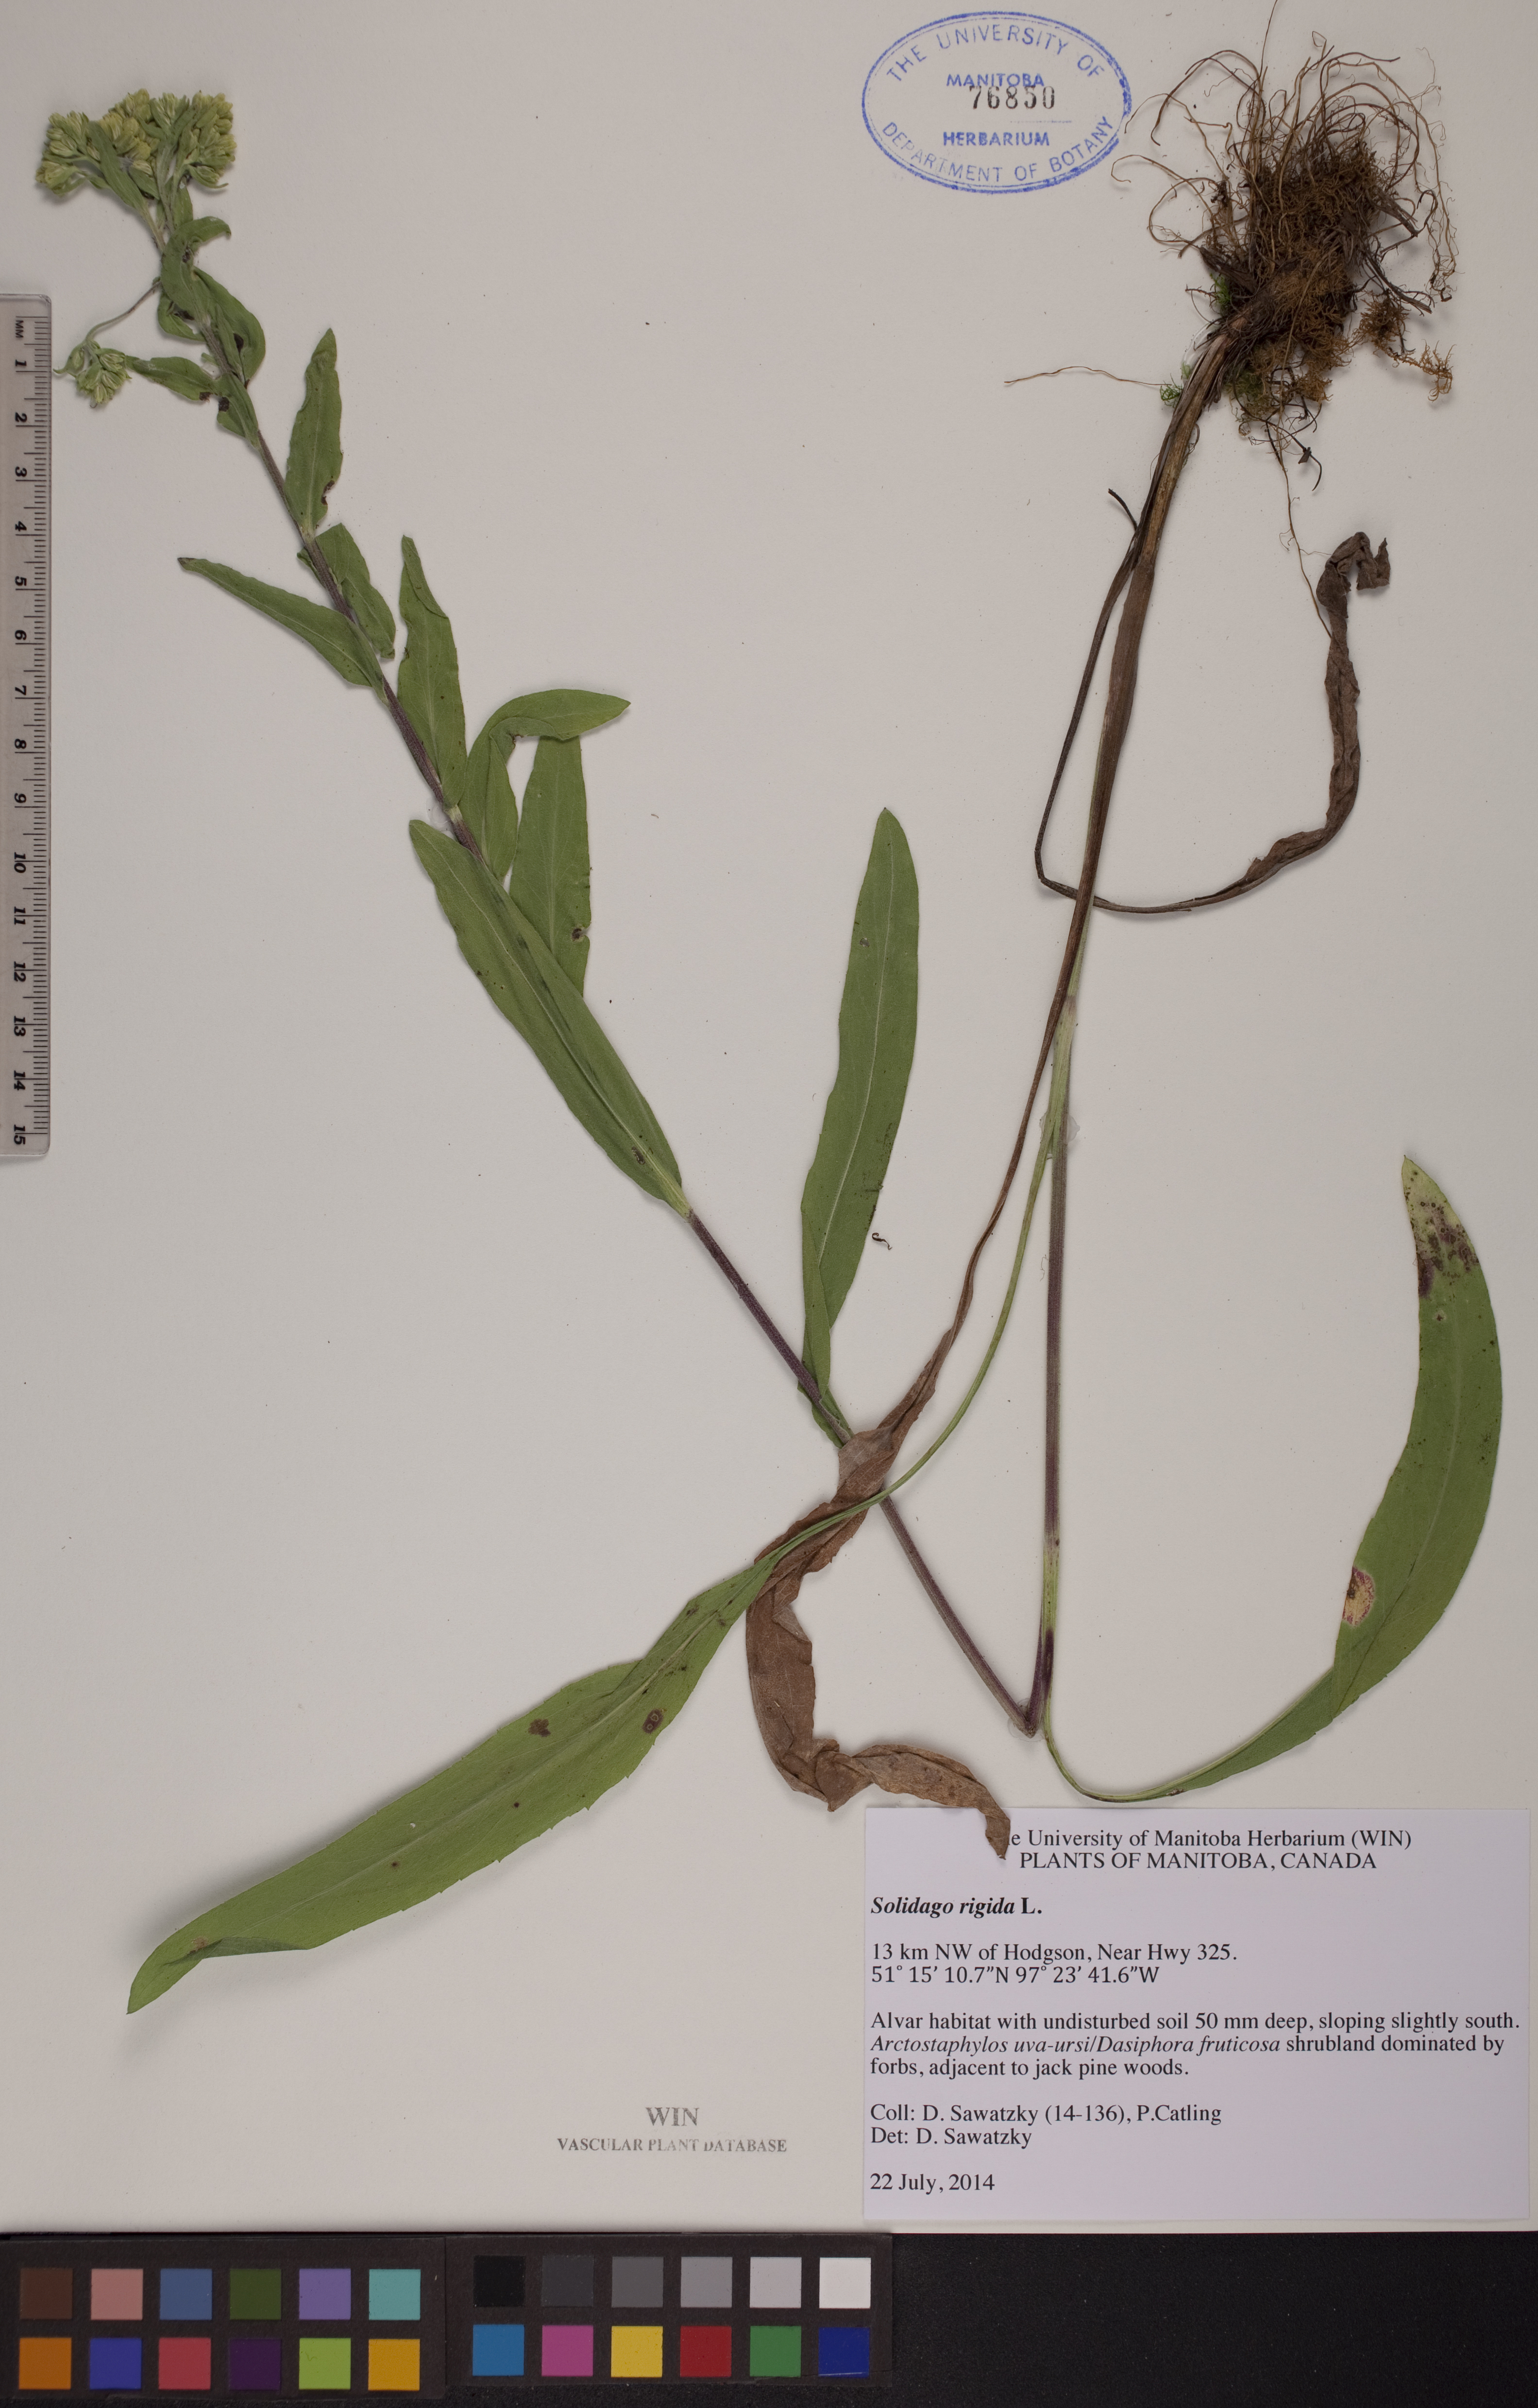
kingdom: Plantae
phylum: Tracheophyta
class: Magnoliopsida
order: Asterales
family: Asteraceae
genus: Solidago
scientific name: Solidago rigida
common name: Rigid goldenrod
